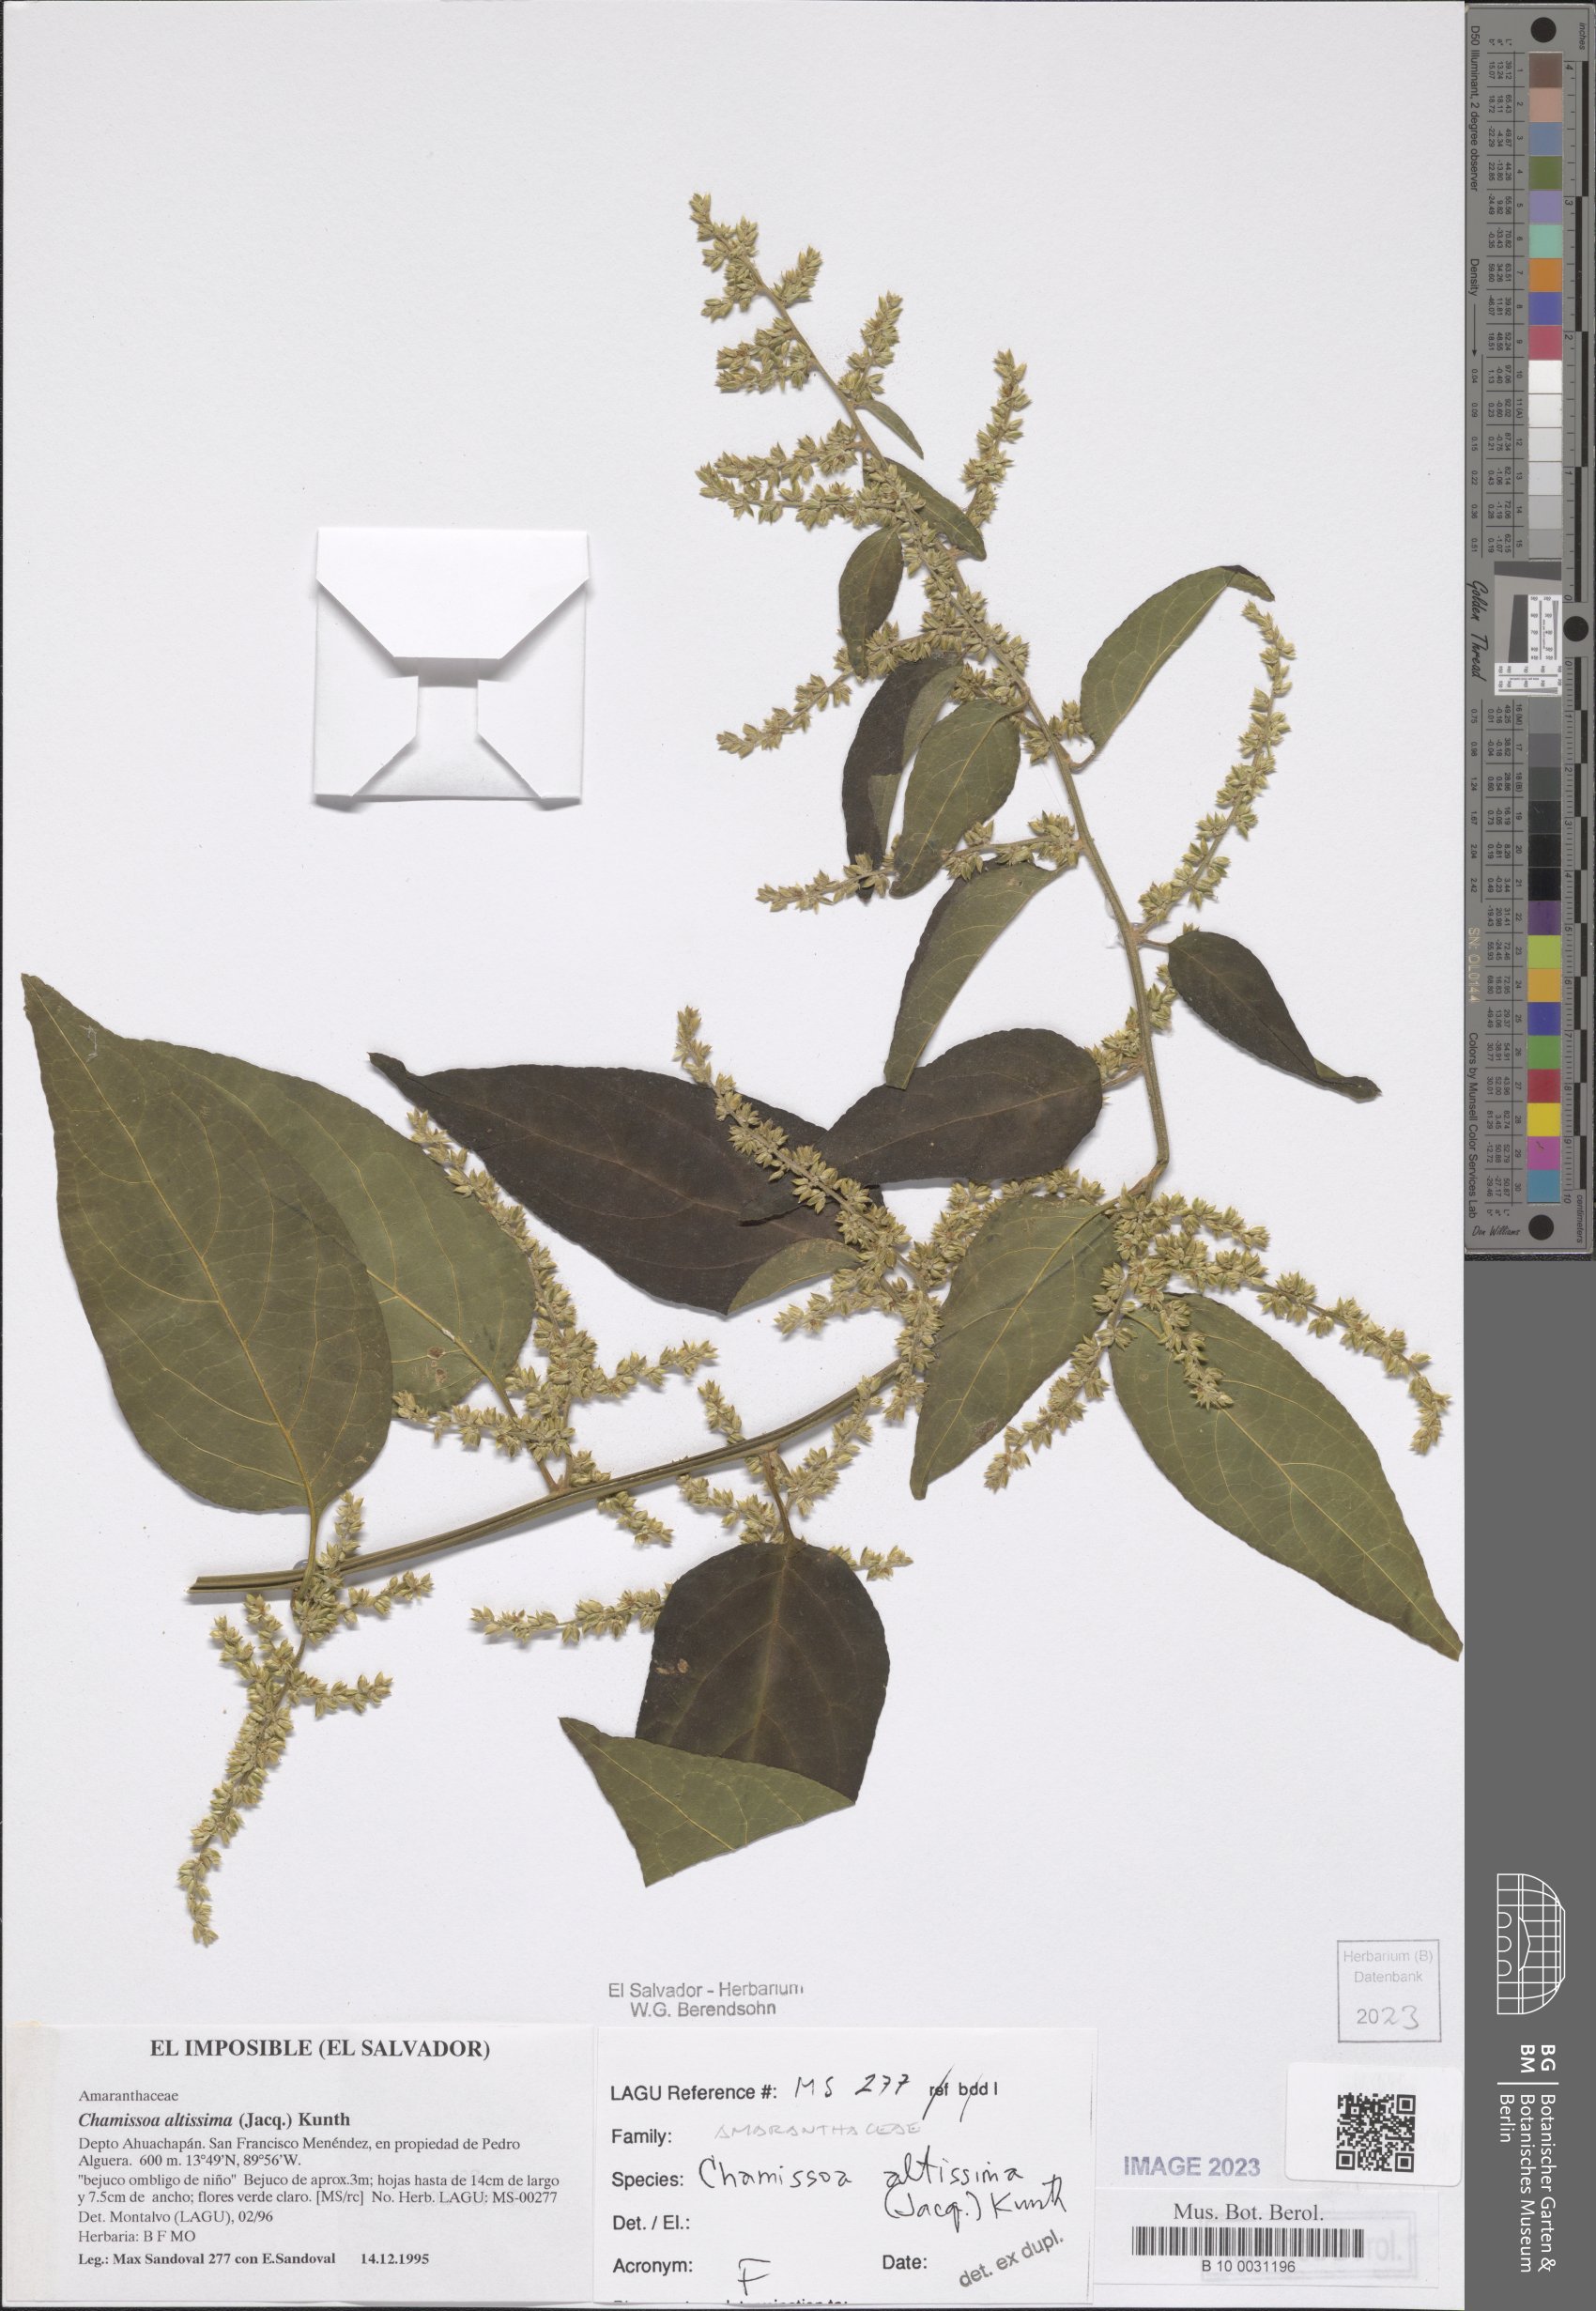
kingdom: Plantae
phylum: Tracheophyta
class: Magnoliopsida
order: Caryophyllales
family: Amaranthaceae
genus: Chamissoa
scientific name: Chamissoa altissima
